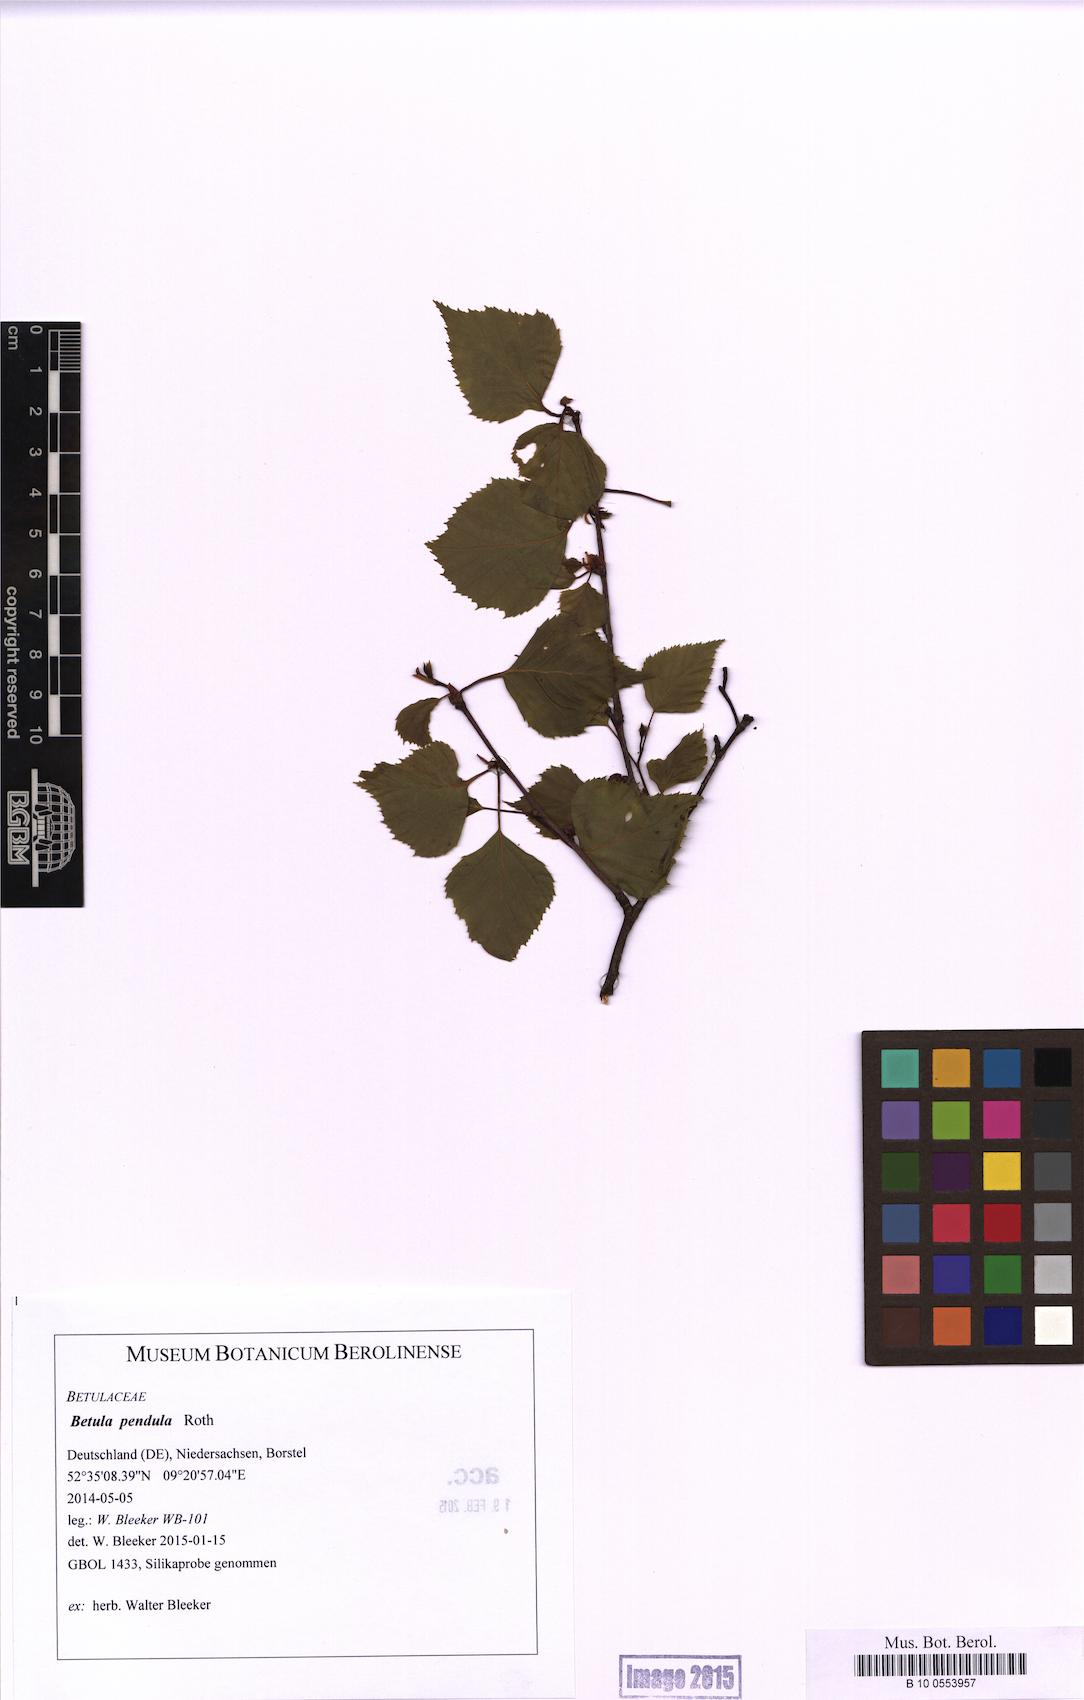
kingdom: Plantae
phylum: Tracheophyta
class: Magnoliopsida
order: Fagales
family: Betulaceae
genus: Betula
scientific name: Betula pendula
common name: Silver birch
